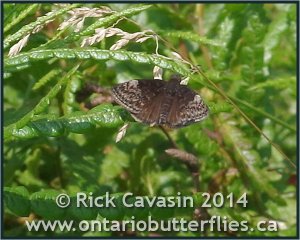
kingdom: Animalia
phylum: Arthropoda
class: Insecta
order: Lepidoptera
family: Hesperiidae
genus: Gesta
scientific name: Gesta
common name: Columbine Duskywing
